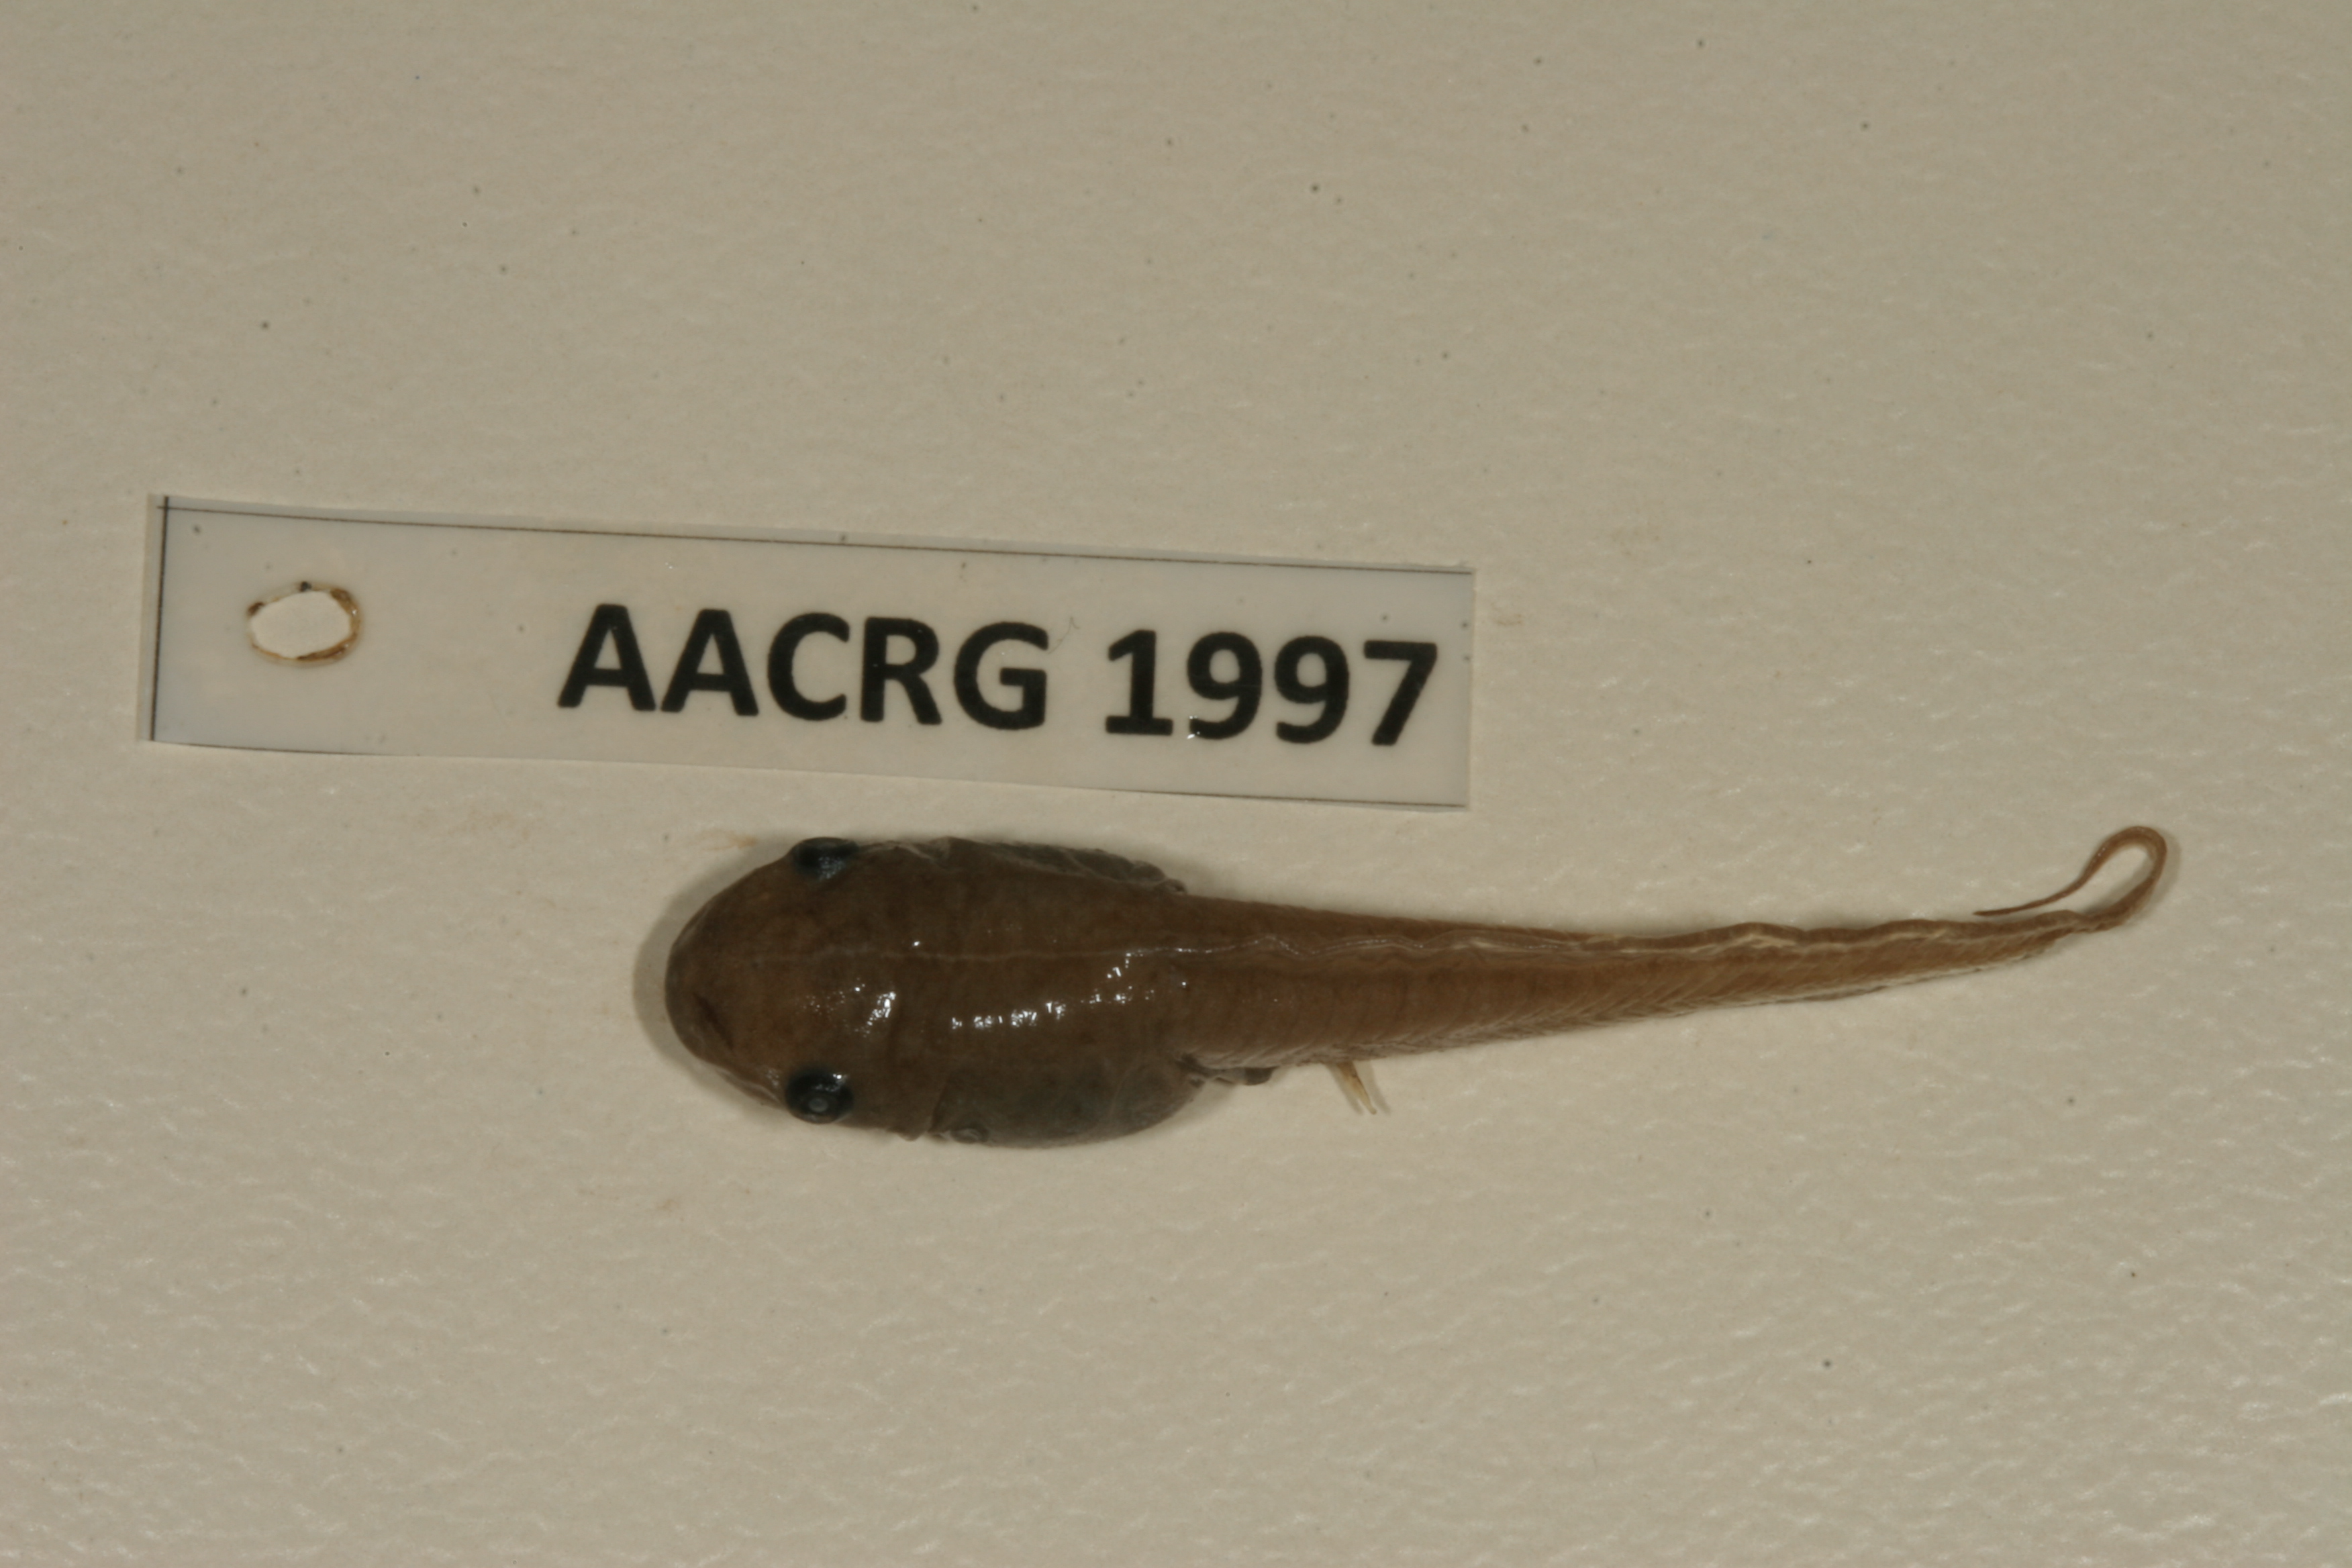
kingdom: Animalia
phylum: Chordata
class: Amphibia
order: Anura
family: Hemisotidae
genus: Hemisus
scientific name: Hemisus marmoratus
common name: Mottled shovel-nosed frog
